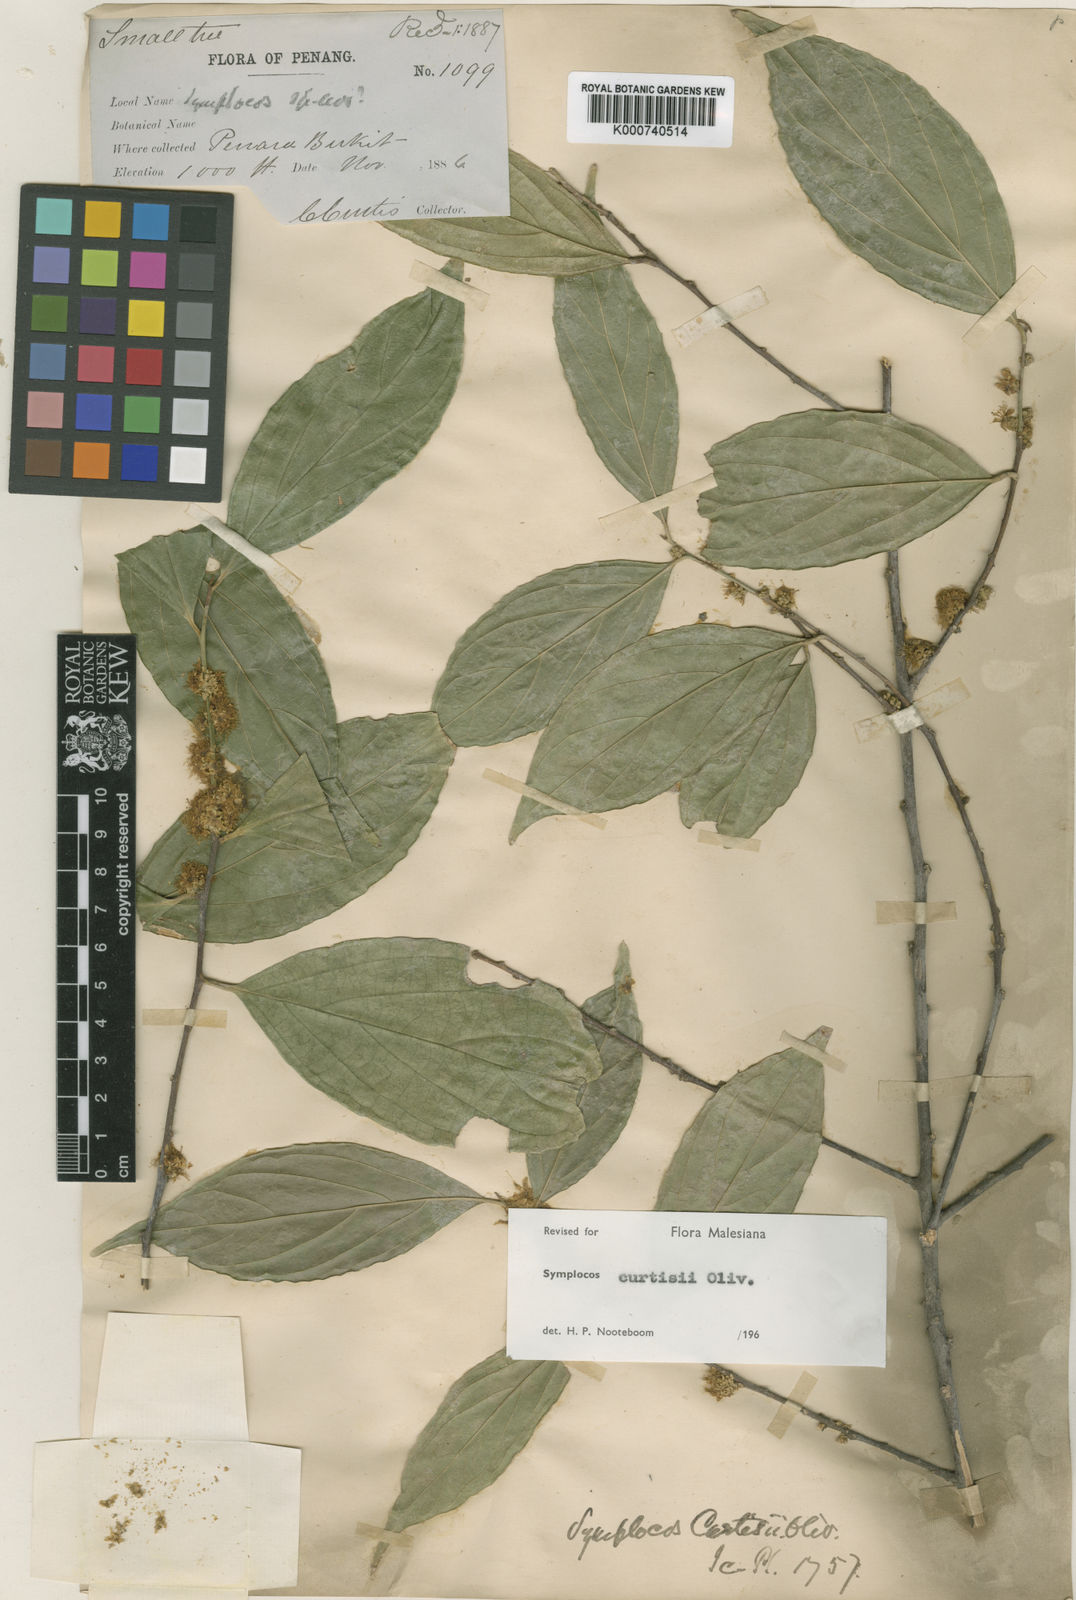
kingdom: Plantae
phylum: Tracheophyta
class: Magnoliopsida
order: Ericales
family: Symplocaceae
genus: Symplocos
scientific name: Symplocos crassipes
